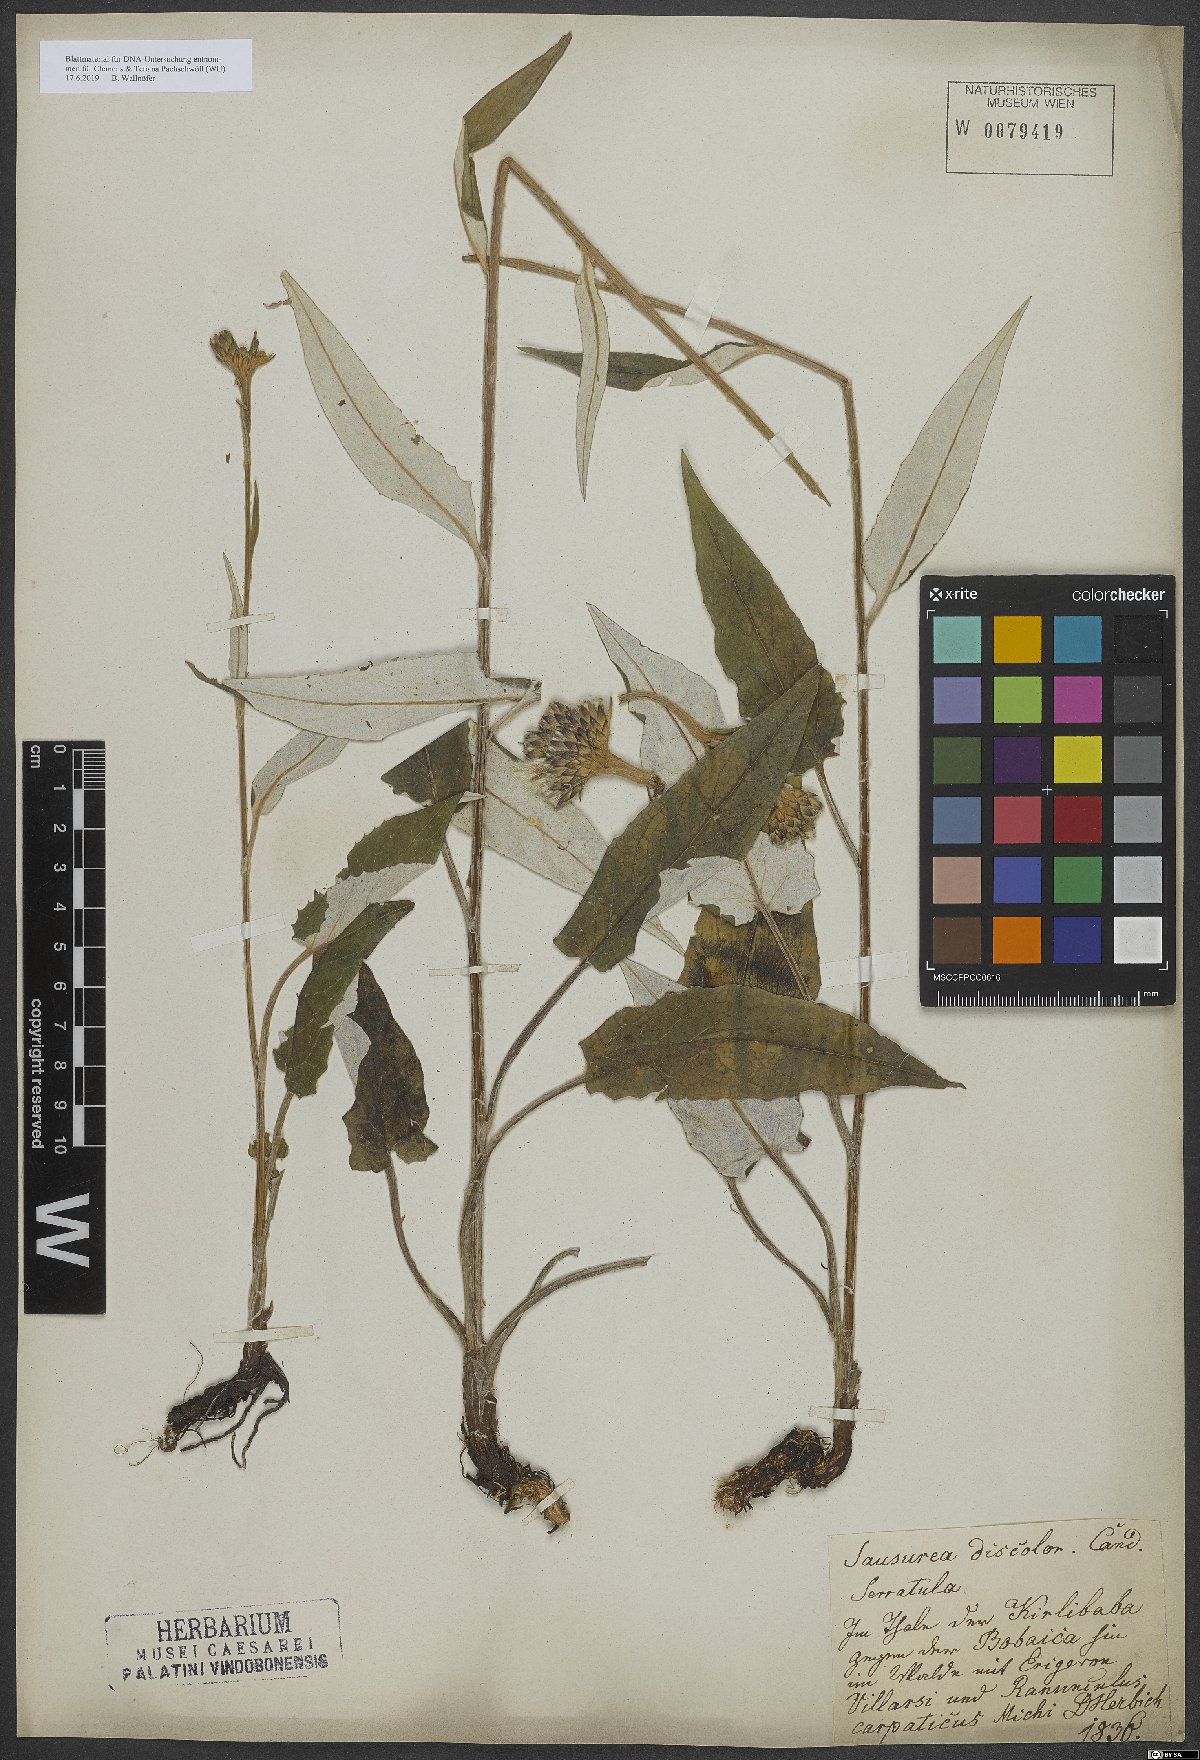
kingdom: Plantae
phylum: Tracheophyta
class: Magnoliopsida
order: Asterales
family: Asteraceae
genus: Saussurea
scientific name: Saussurea discolor
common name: Heart-leaved saussurea
